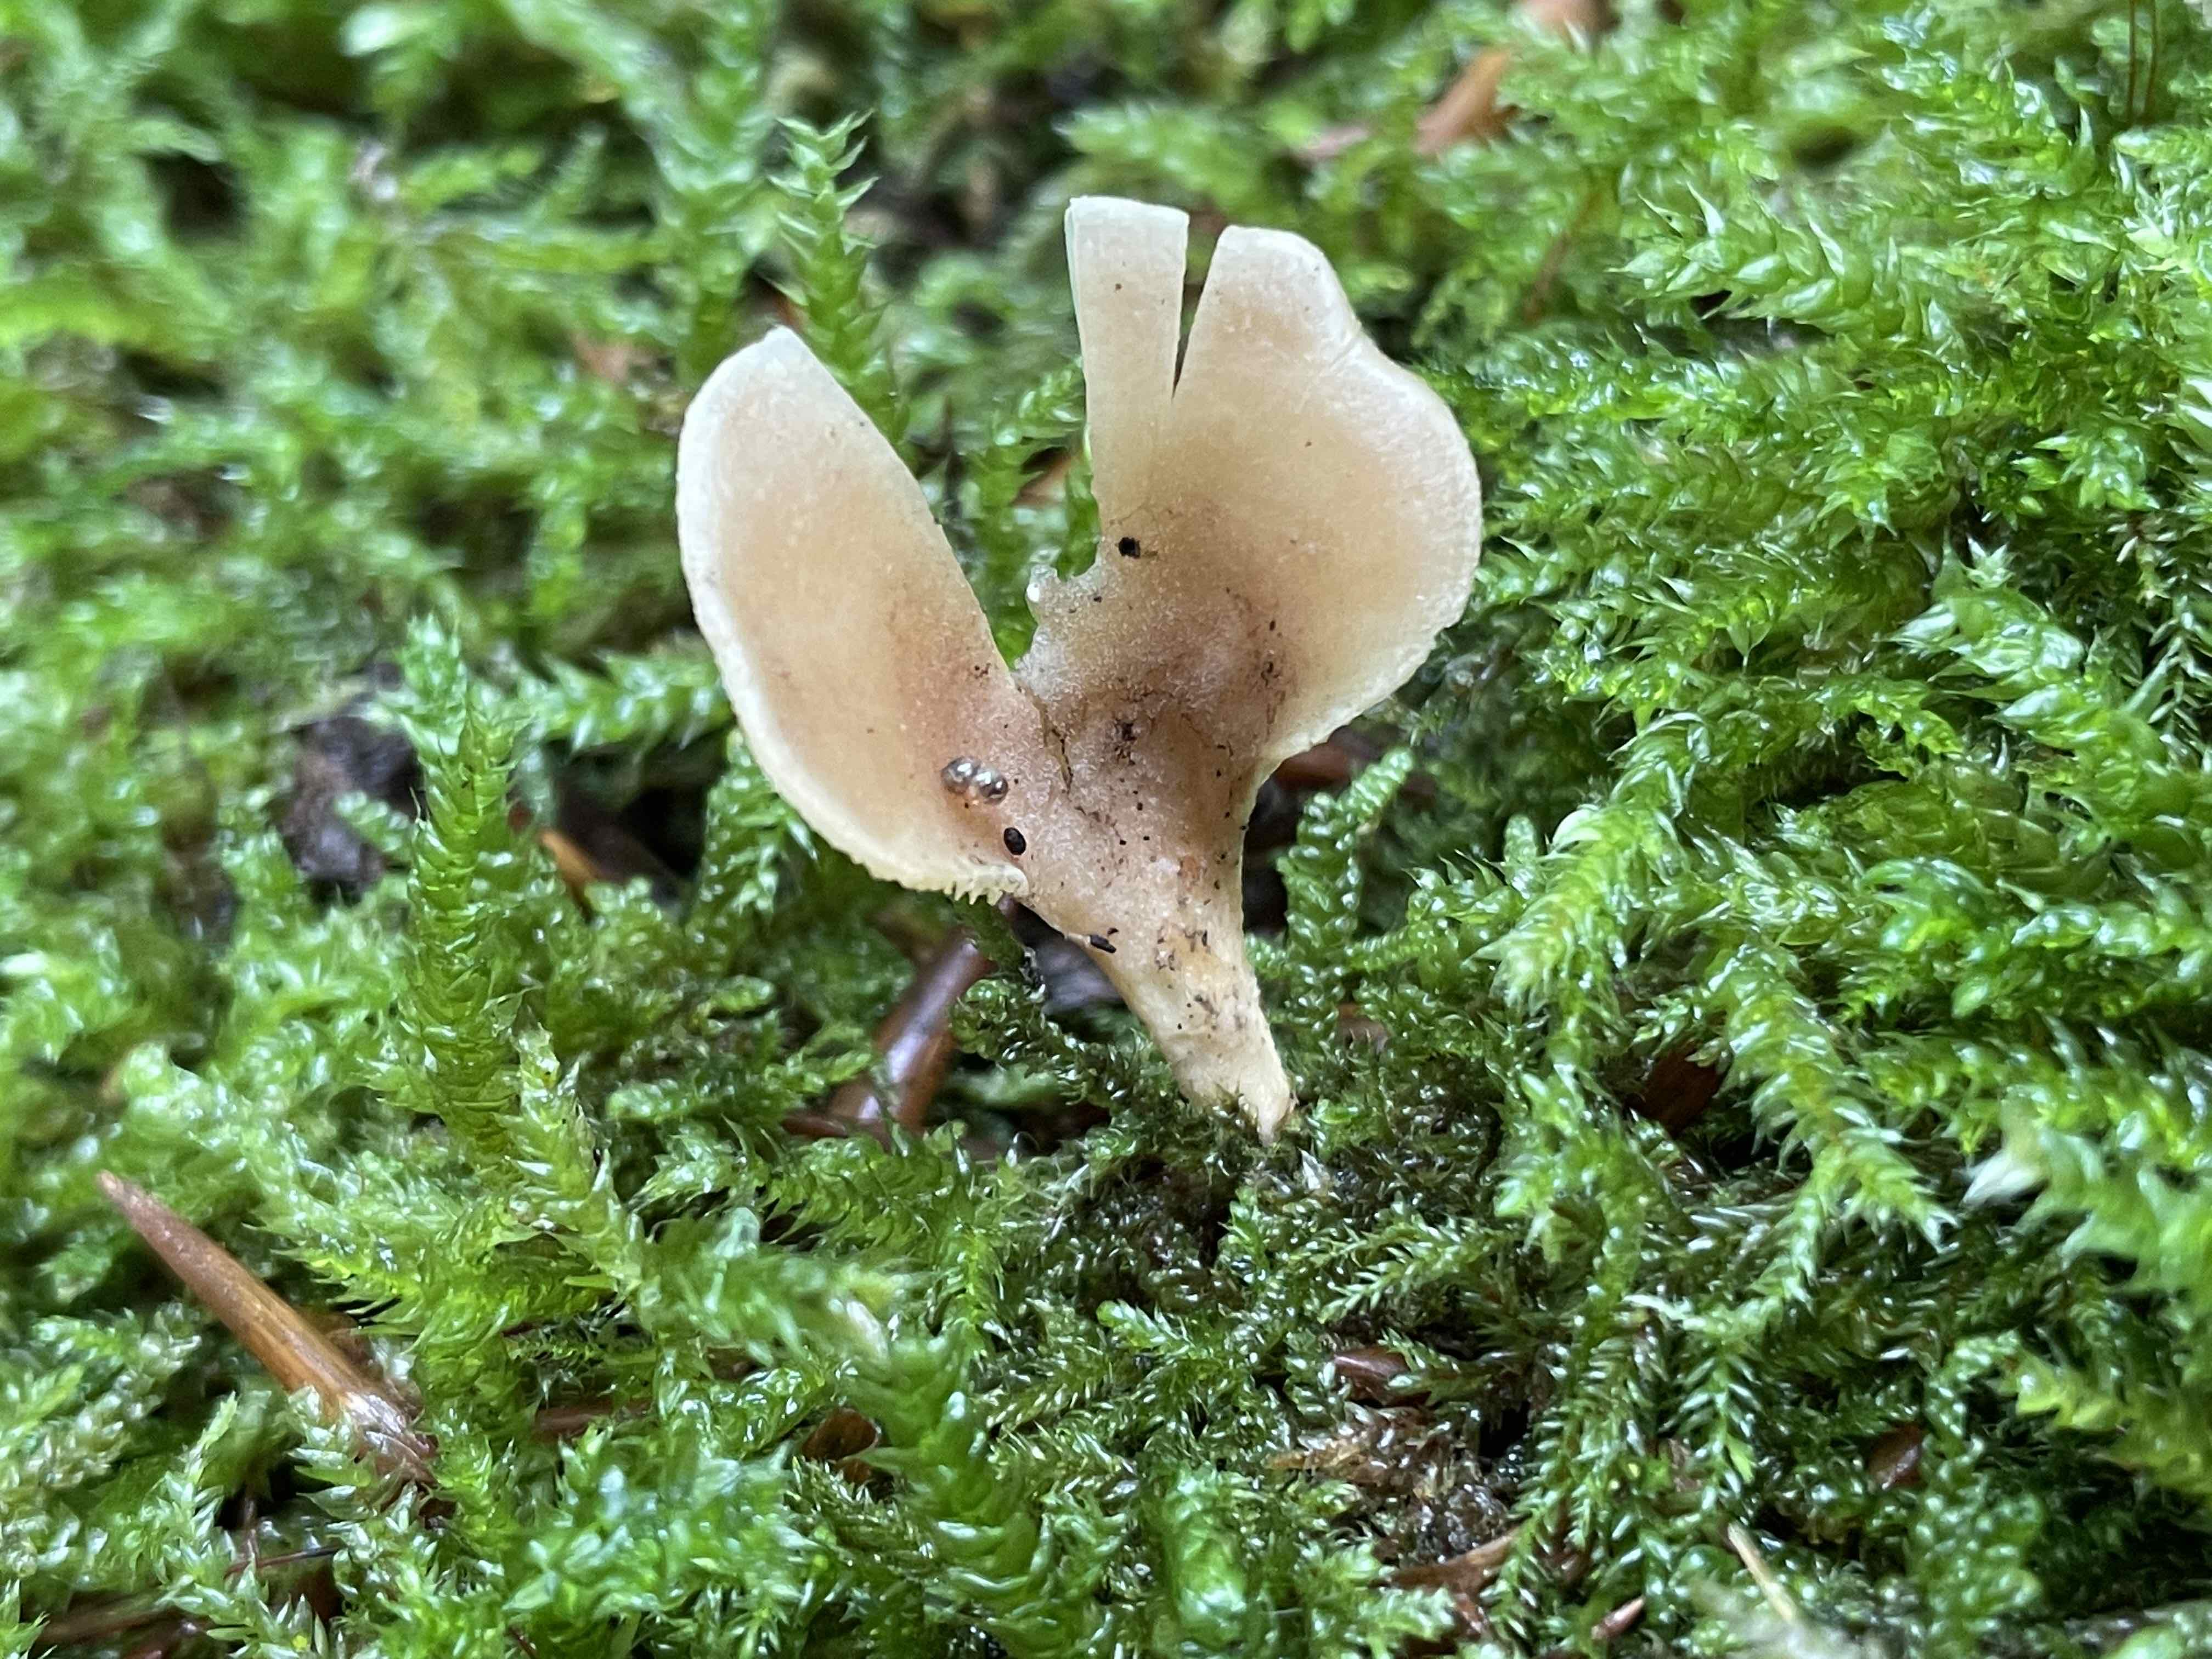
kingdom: Fungi
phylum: Basidiomycota
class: Agaricomycetes
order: Agaricales
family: Pleurotaceae
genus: Hohenbuehelia
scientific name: Hohenbuehelia auriscalpium
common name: spatel-filthat
